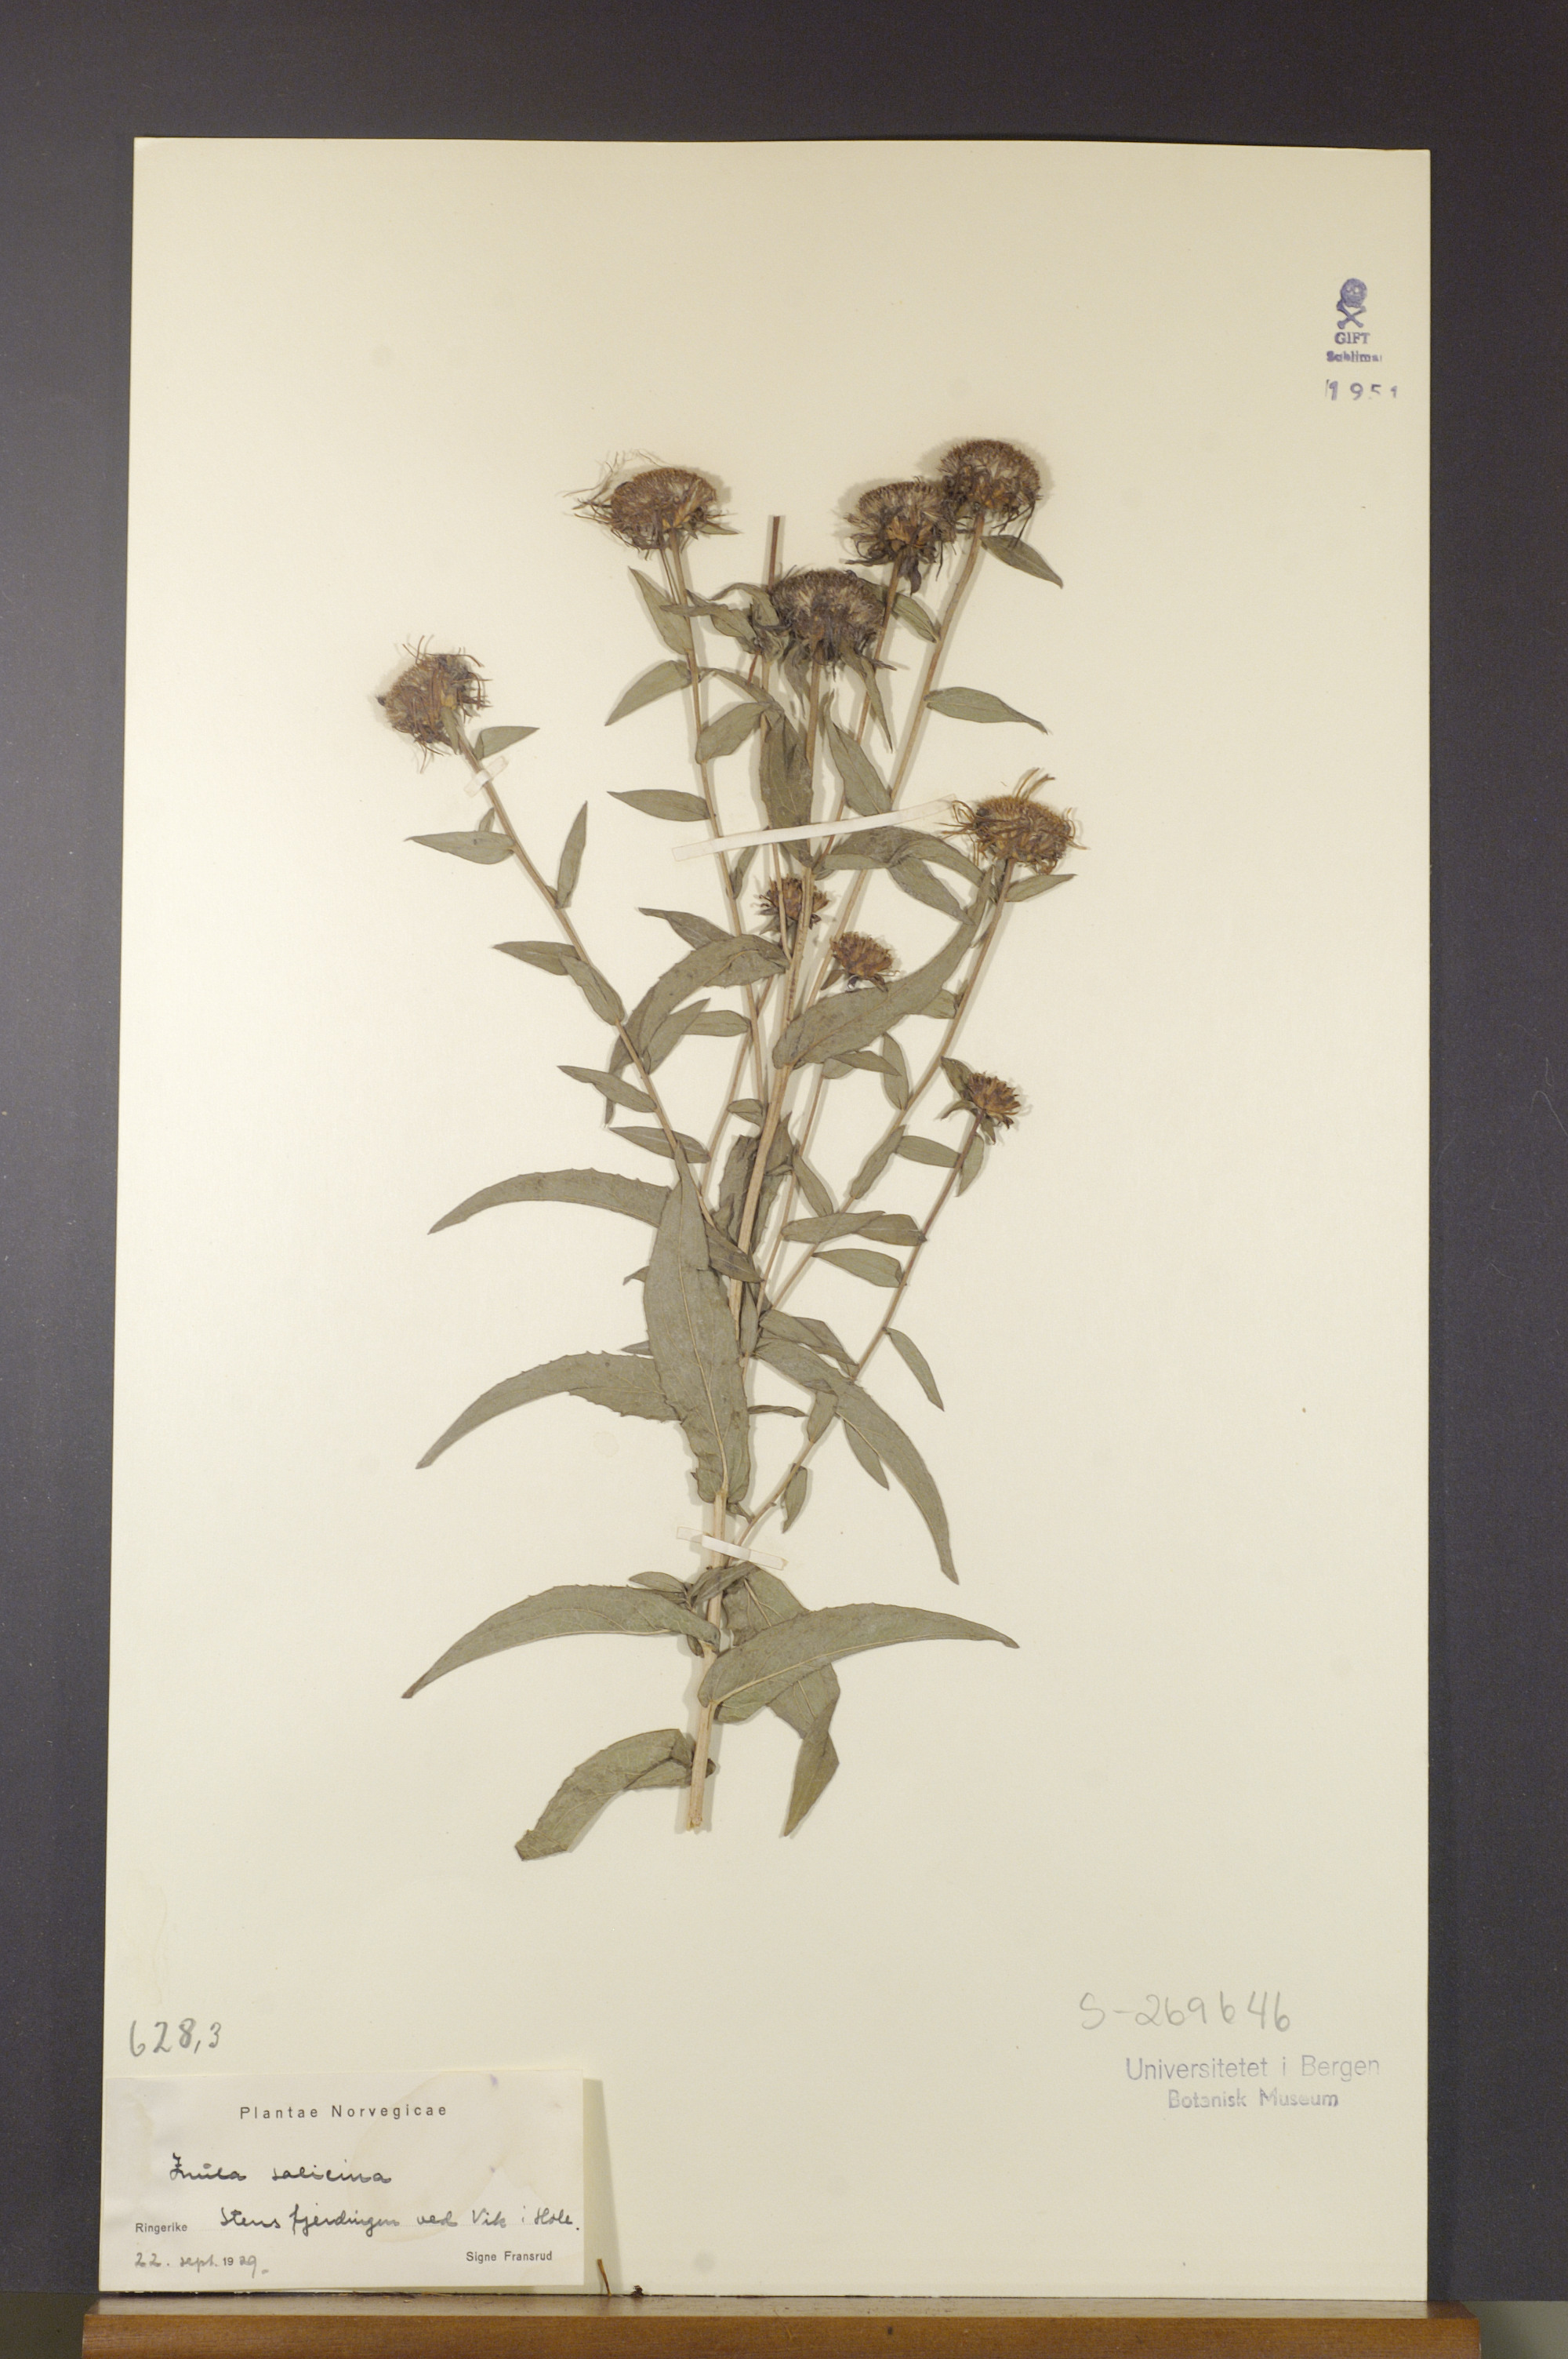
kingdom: Plantae
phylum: Tracheophyta
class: Magnoliopsida
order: Asterales
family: Asteraceae
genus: Pentanema
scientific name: Pentanema salicinum
